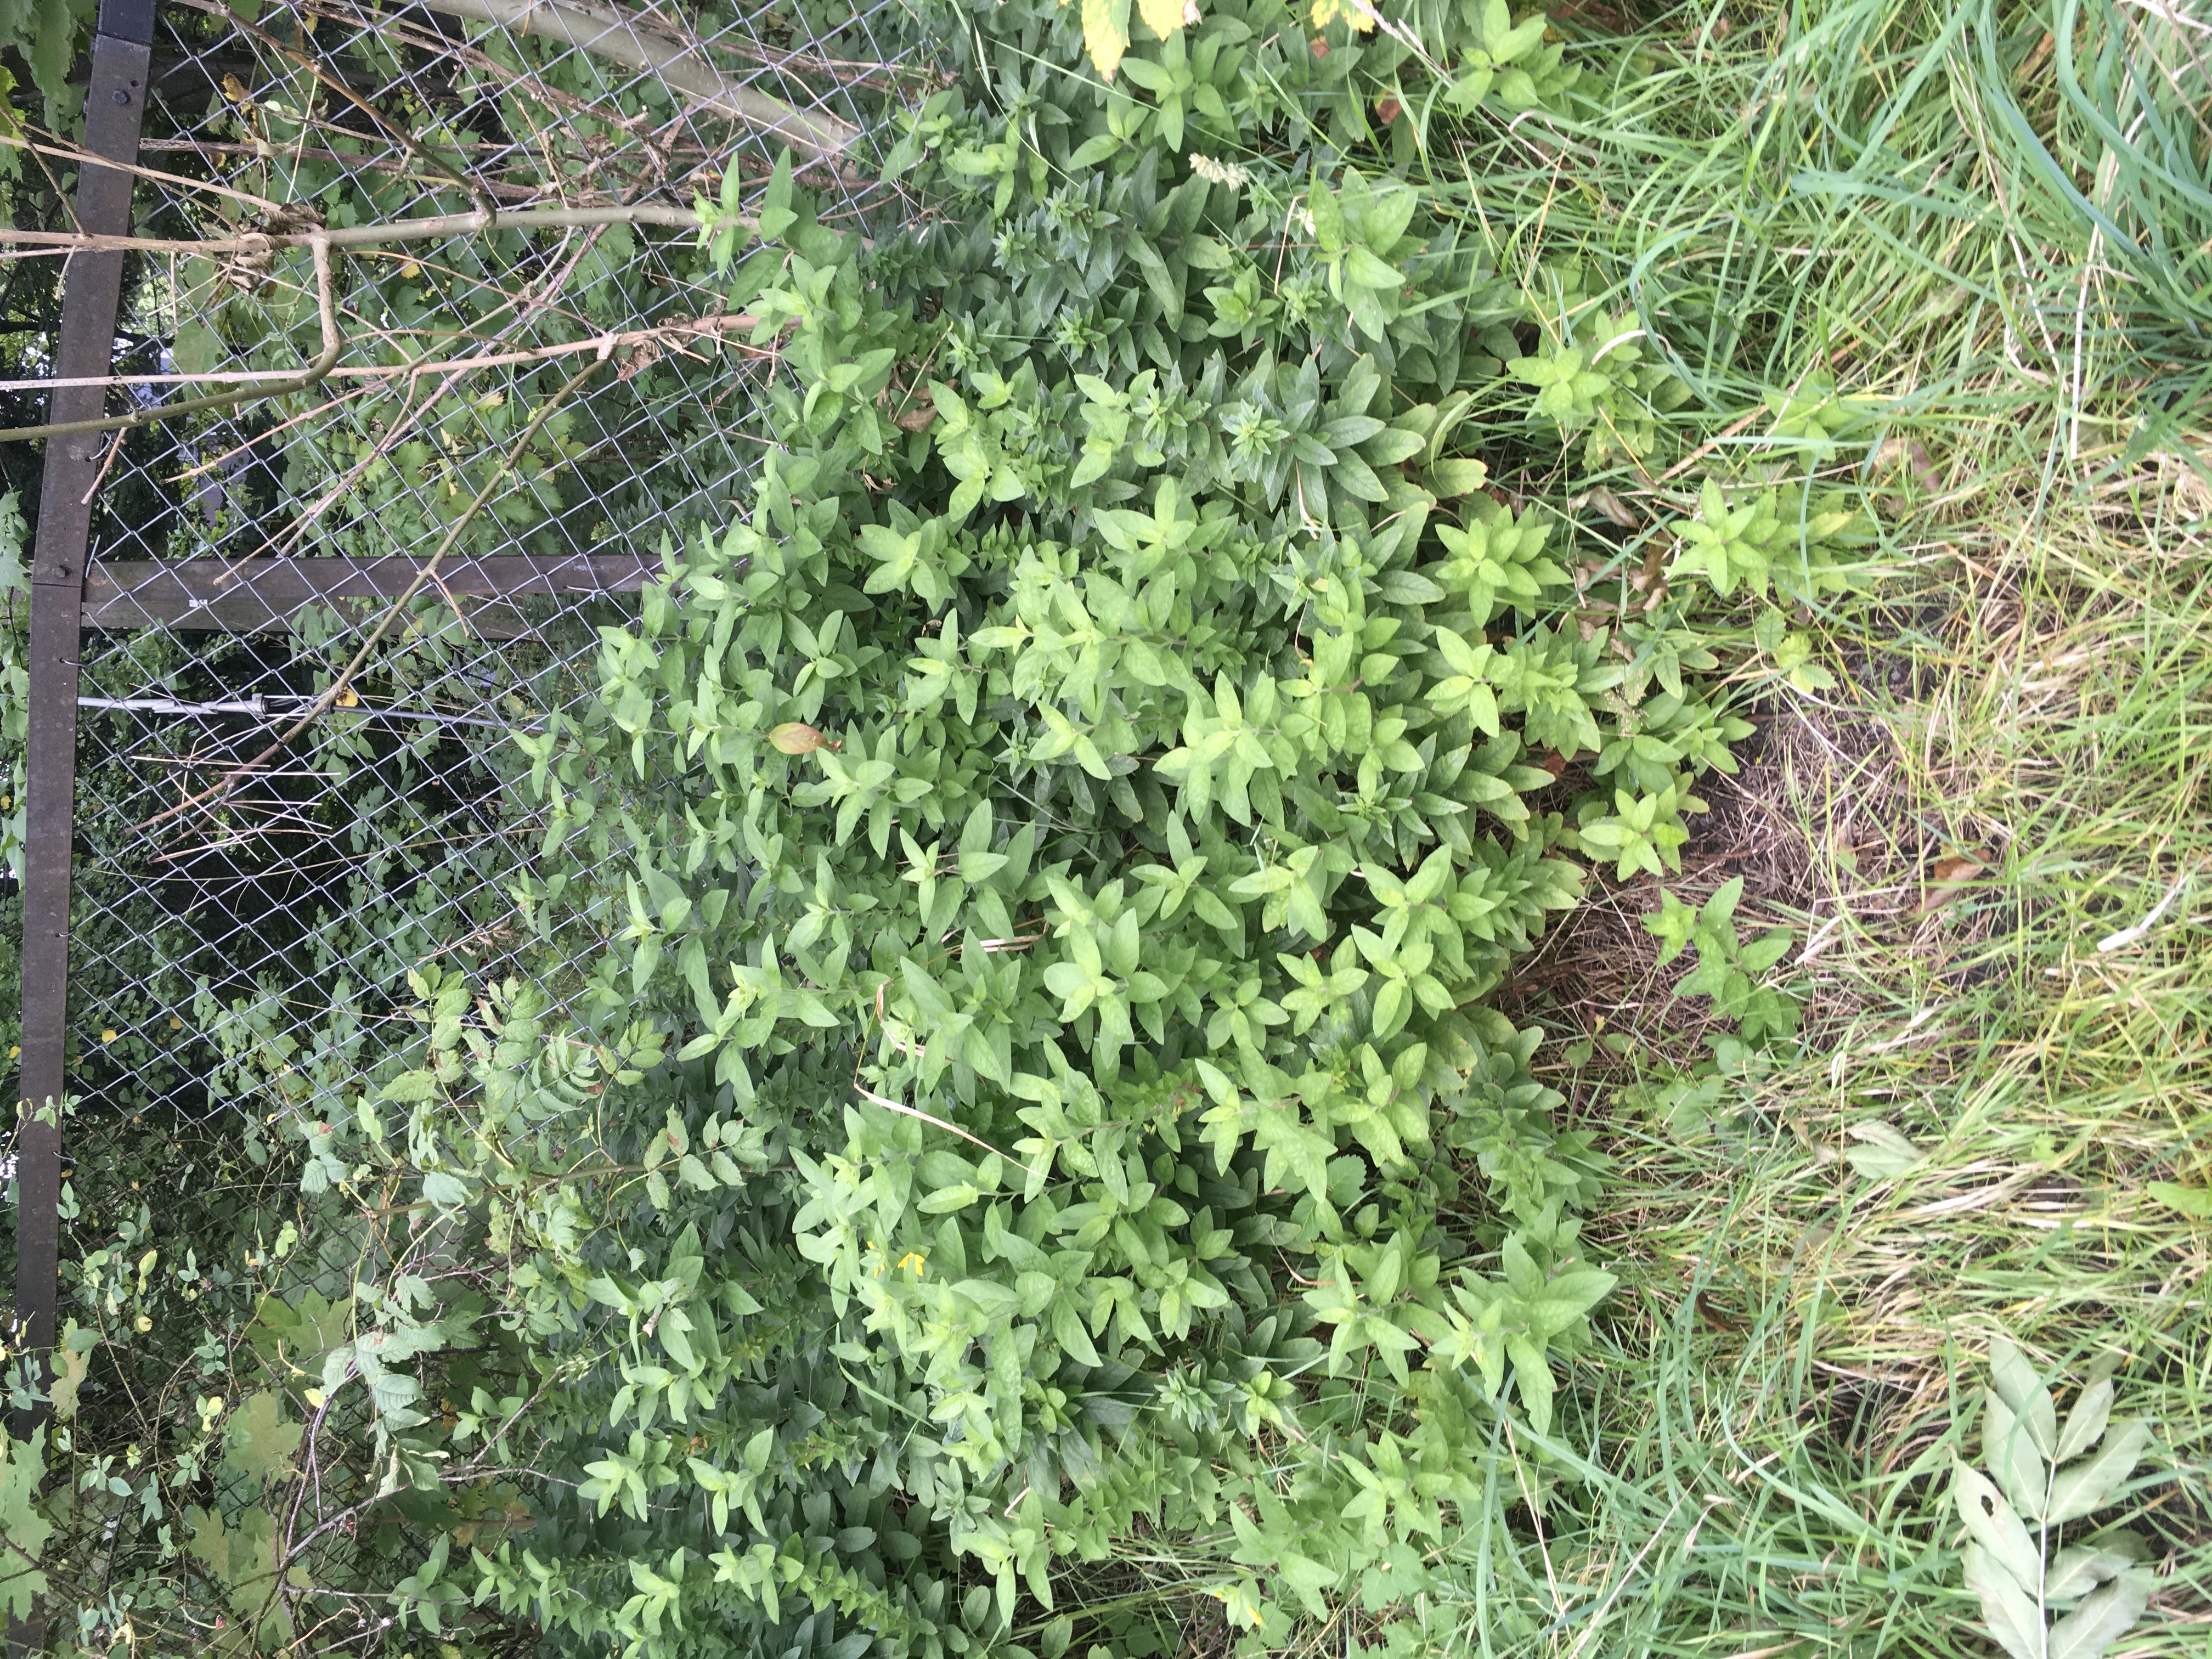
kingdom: Plantae
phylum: Tracheophyta
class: Magnoliopsida
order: Ericales
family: Primulaceae
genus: Lysimachia
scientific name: Lysimachia punctata
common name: fagerfredløs
